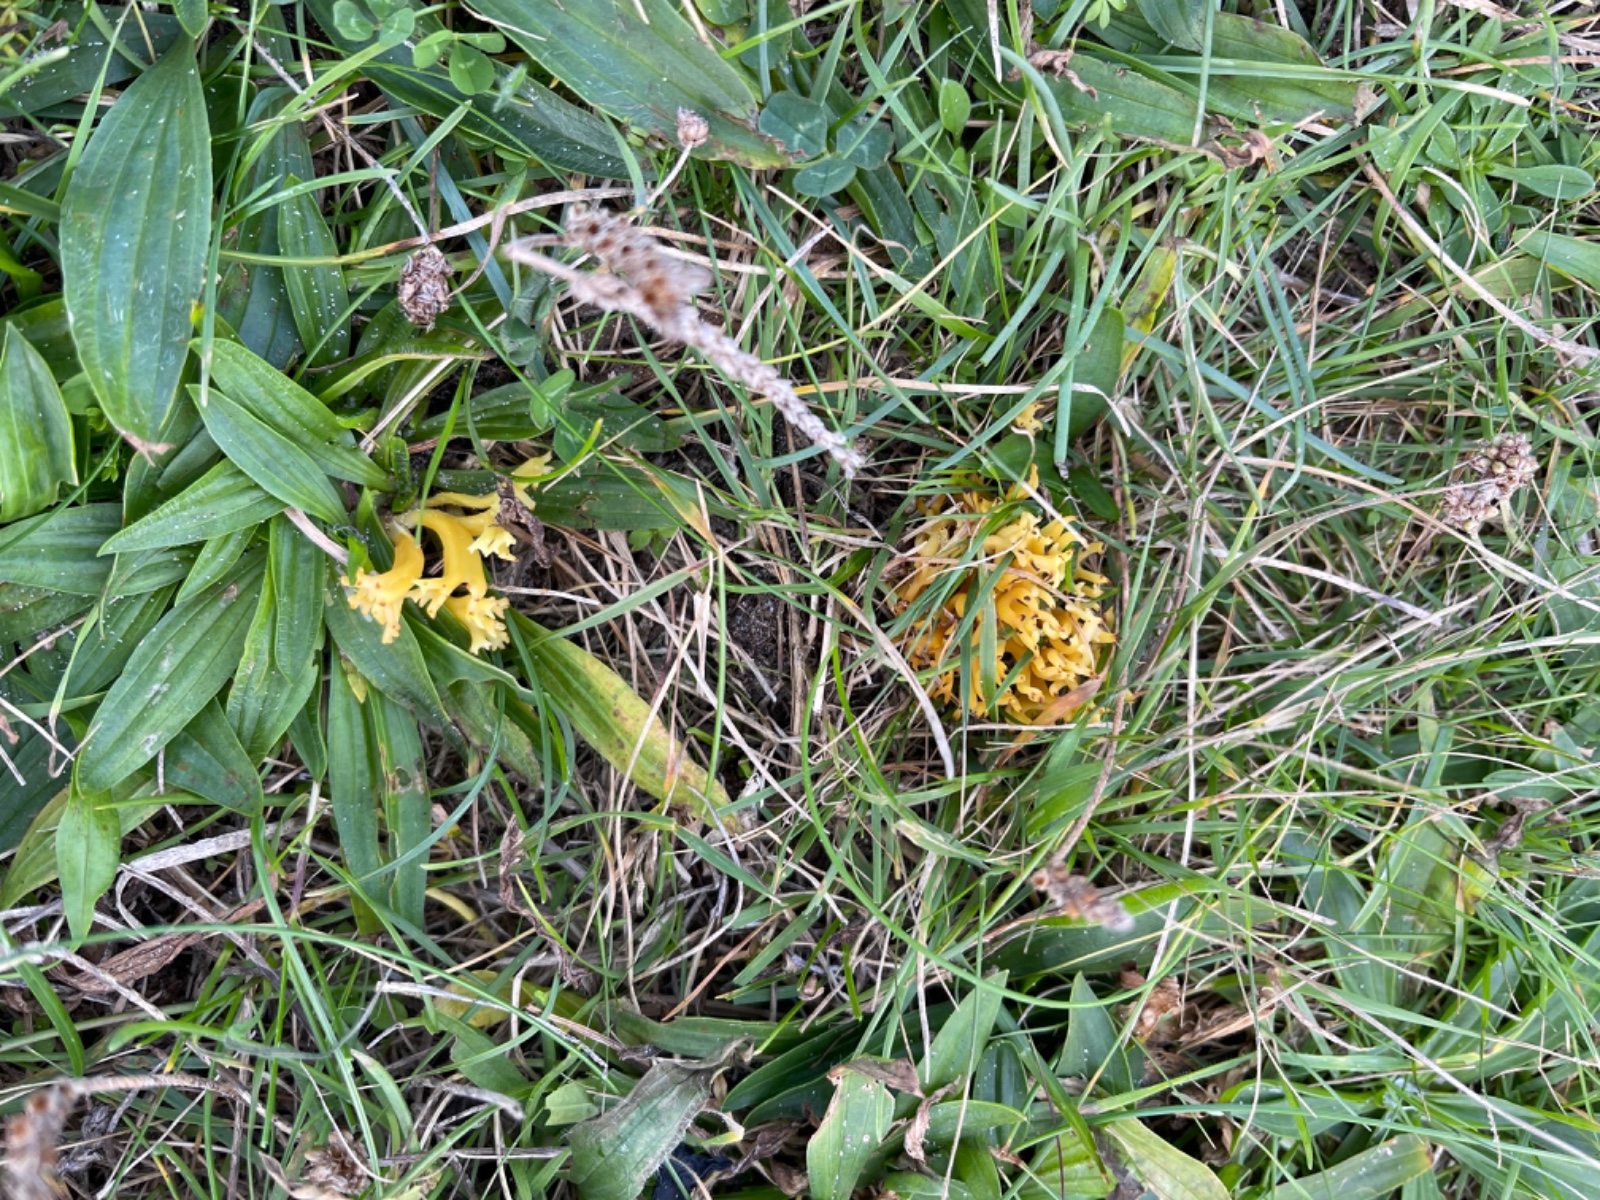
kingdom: Fungi
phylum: Basidiomycota
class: Agaricomycetes
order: Agaricales
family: Clavariaceae
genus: Clavulinopsis
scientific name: Clavulinopsis corniculata
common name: eng-køllesvamp
